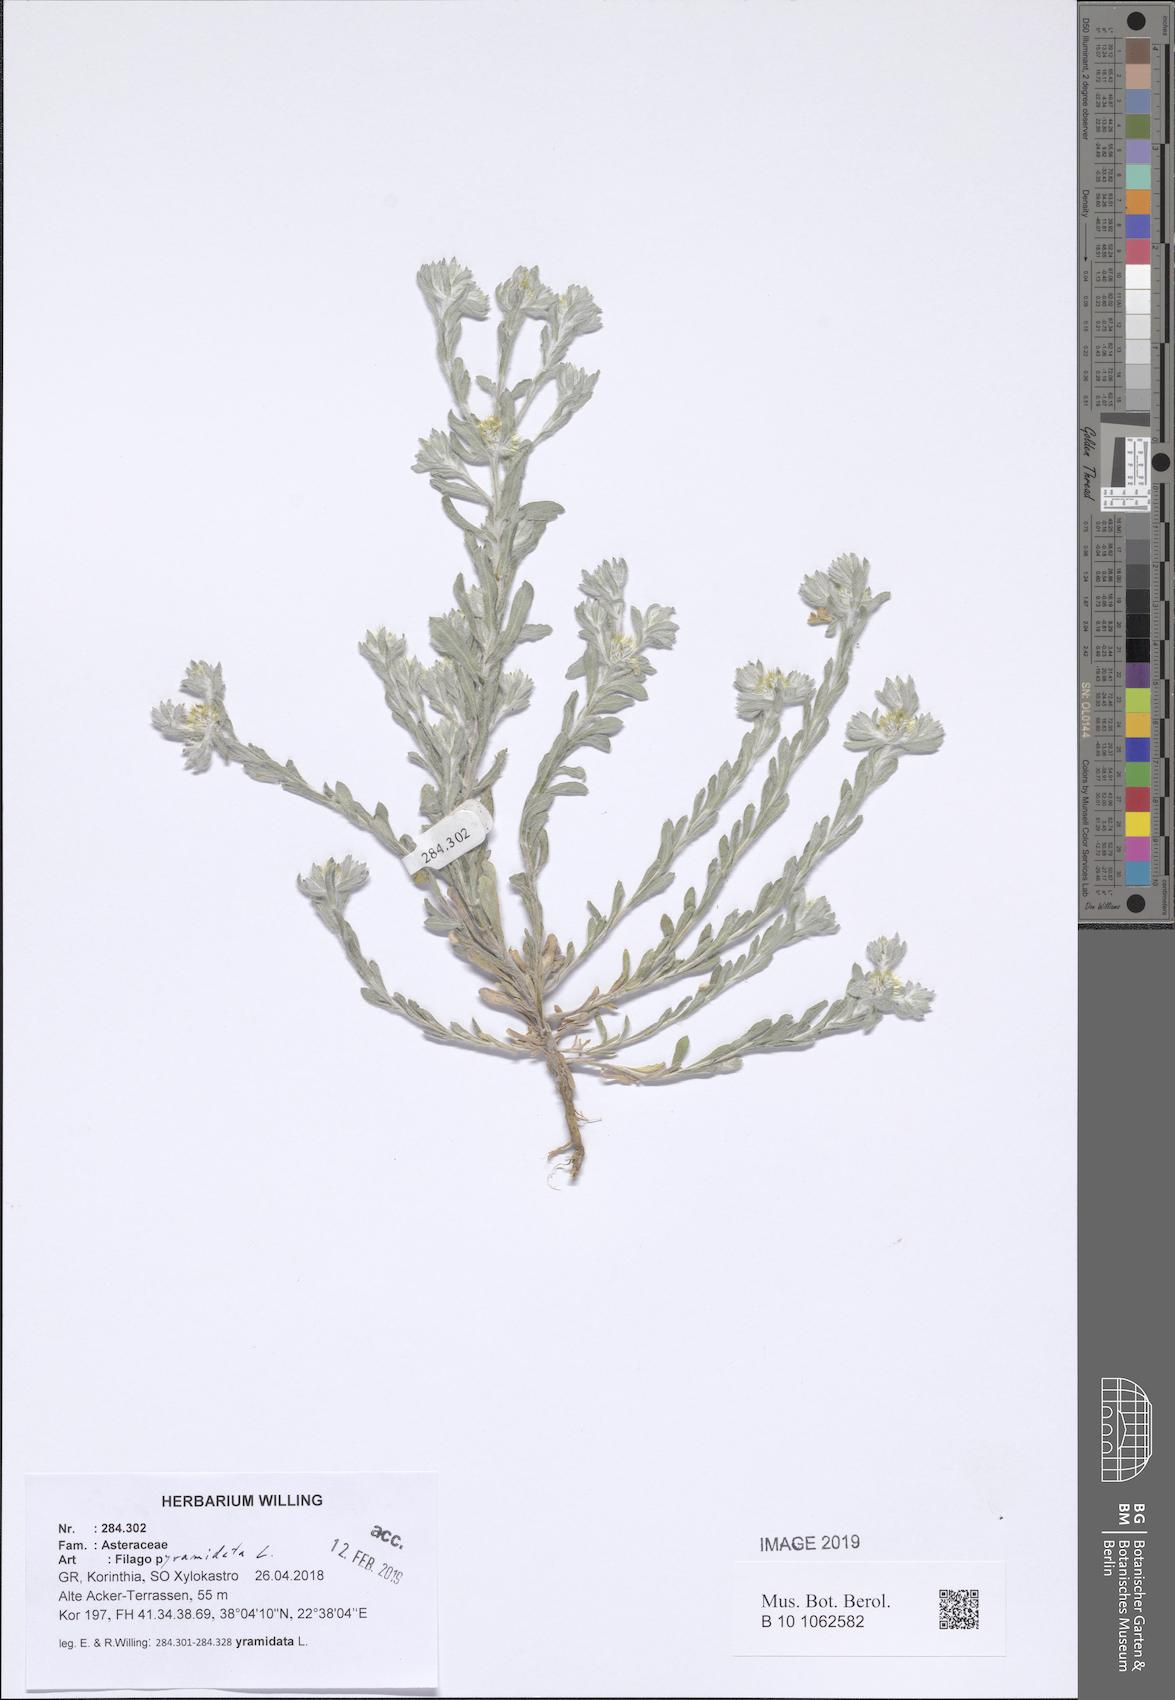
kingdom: Plantae
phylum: Tracheophyta
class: Magnoliopsida
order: Asterales
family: Asteraceae
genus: Filago
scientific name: Filago pyramidata
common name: Broad-leaved cudweed
